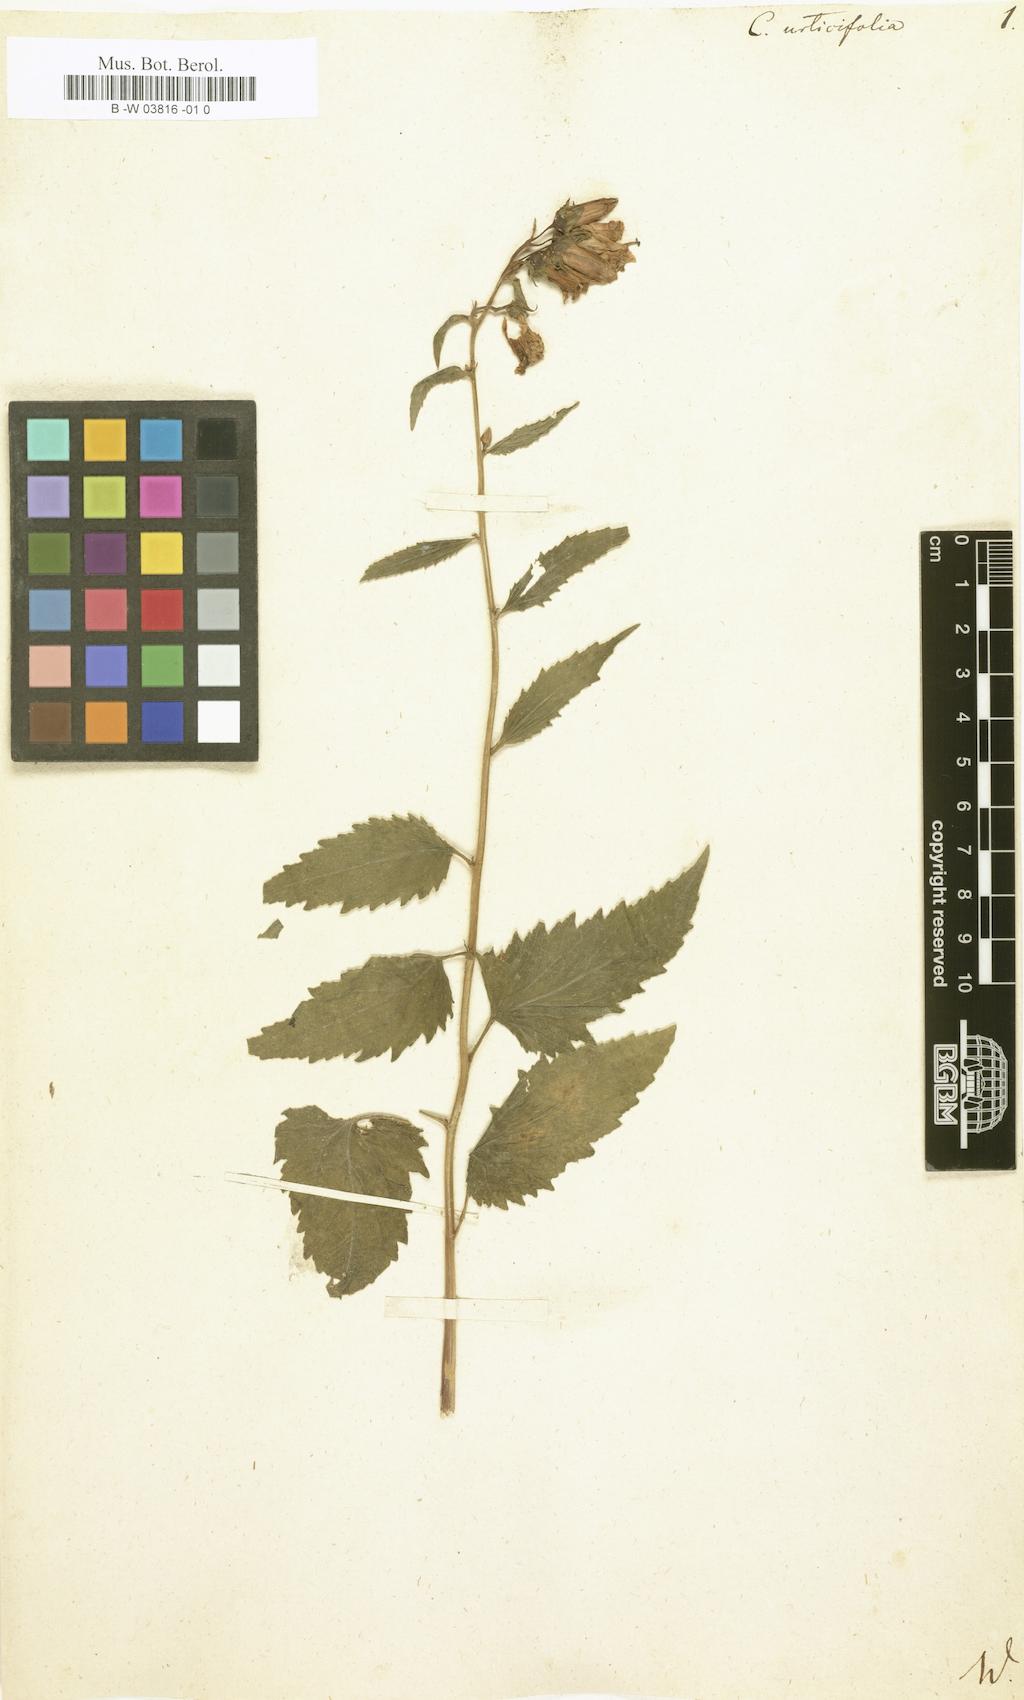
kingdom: Plantae
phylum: Tracheophyta
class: Magnoliopsida
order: Asterales
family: Campanulaceae
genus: Campanula
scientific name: Campanula urticifolia
